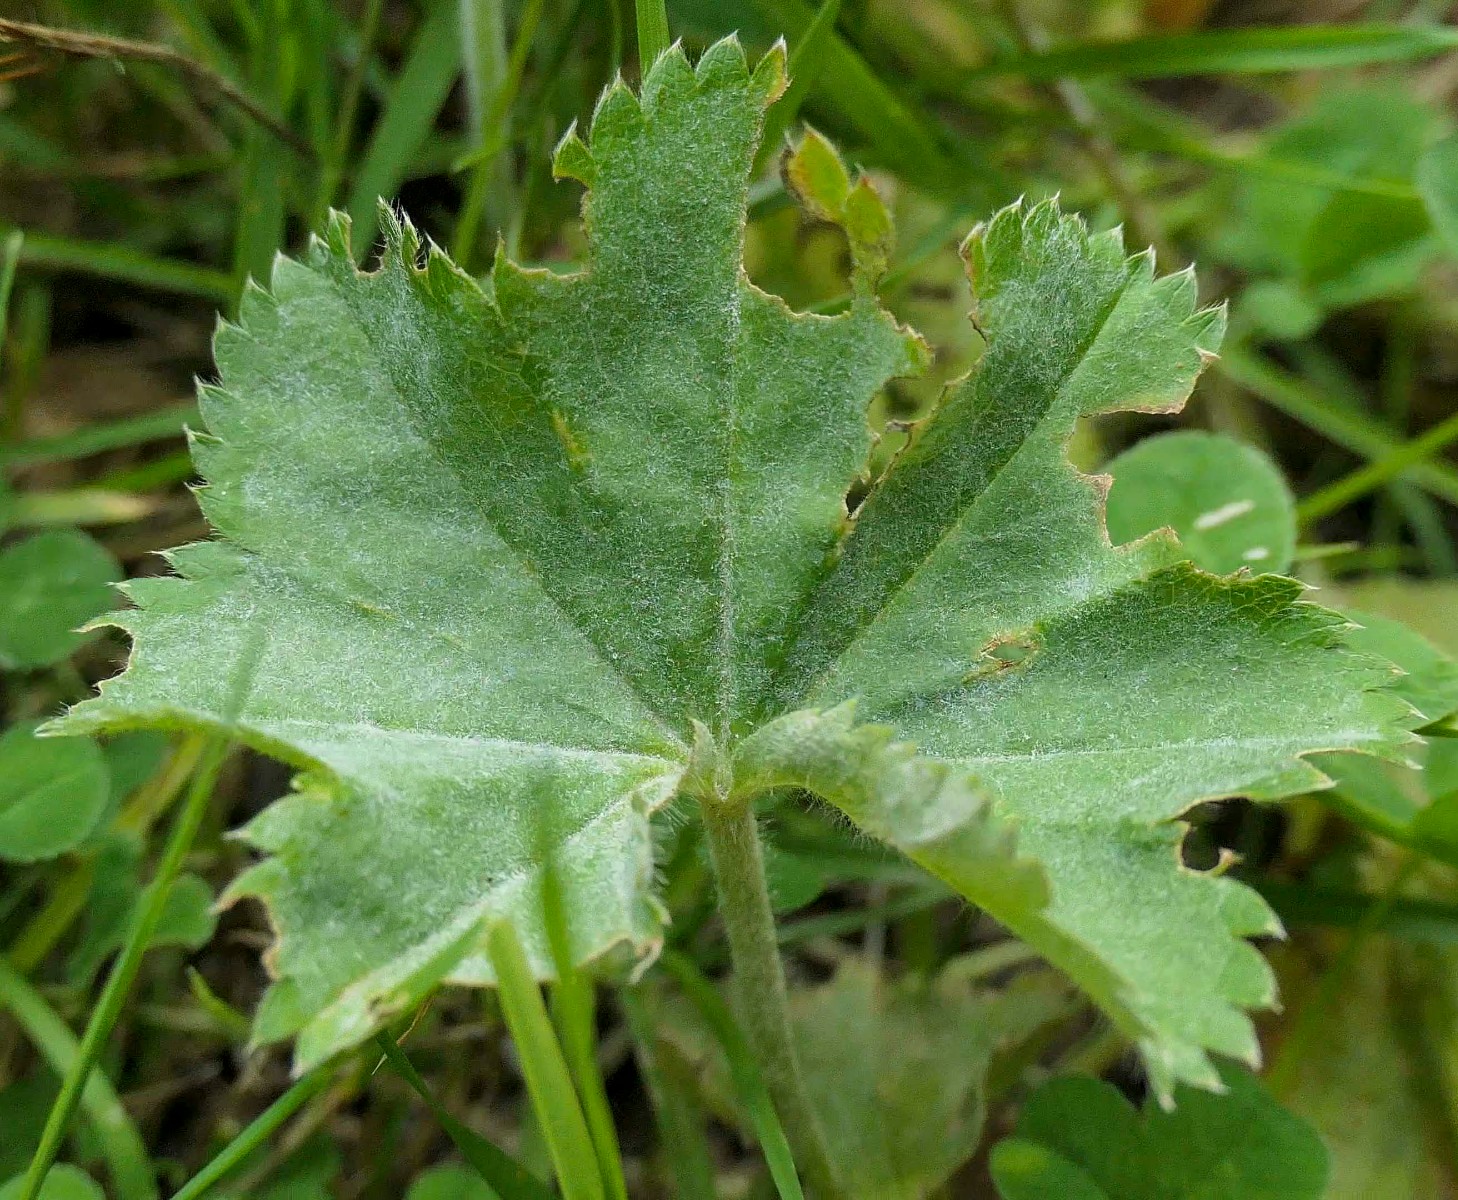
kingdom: Fungi
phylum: Ascomycota
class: Leotiomycetes
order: Helotiales
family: Erysiphaceae
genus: Podosphaera
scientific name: Podosphaera aphanis
